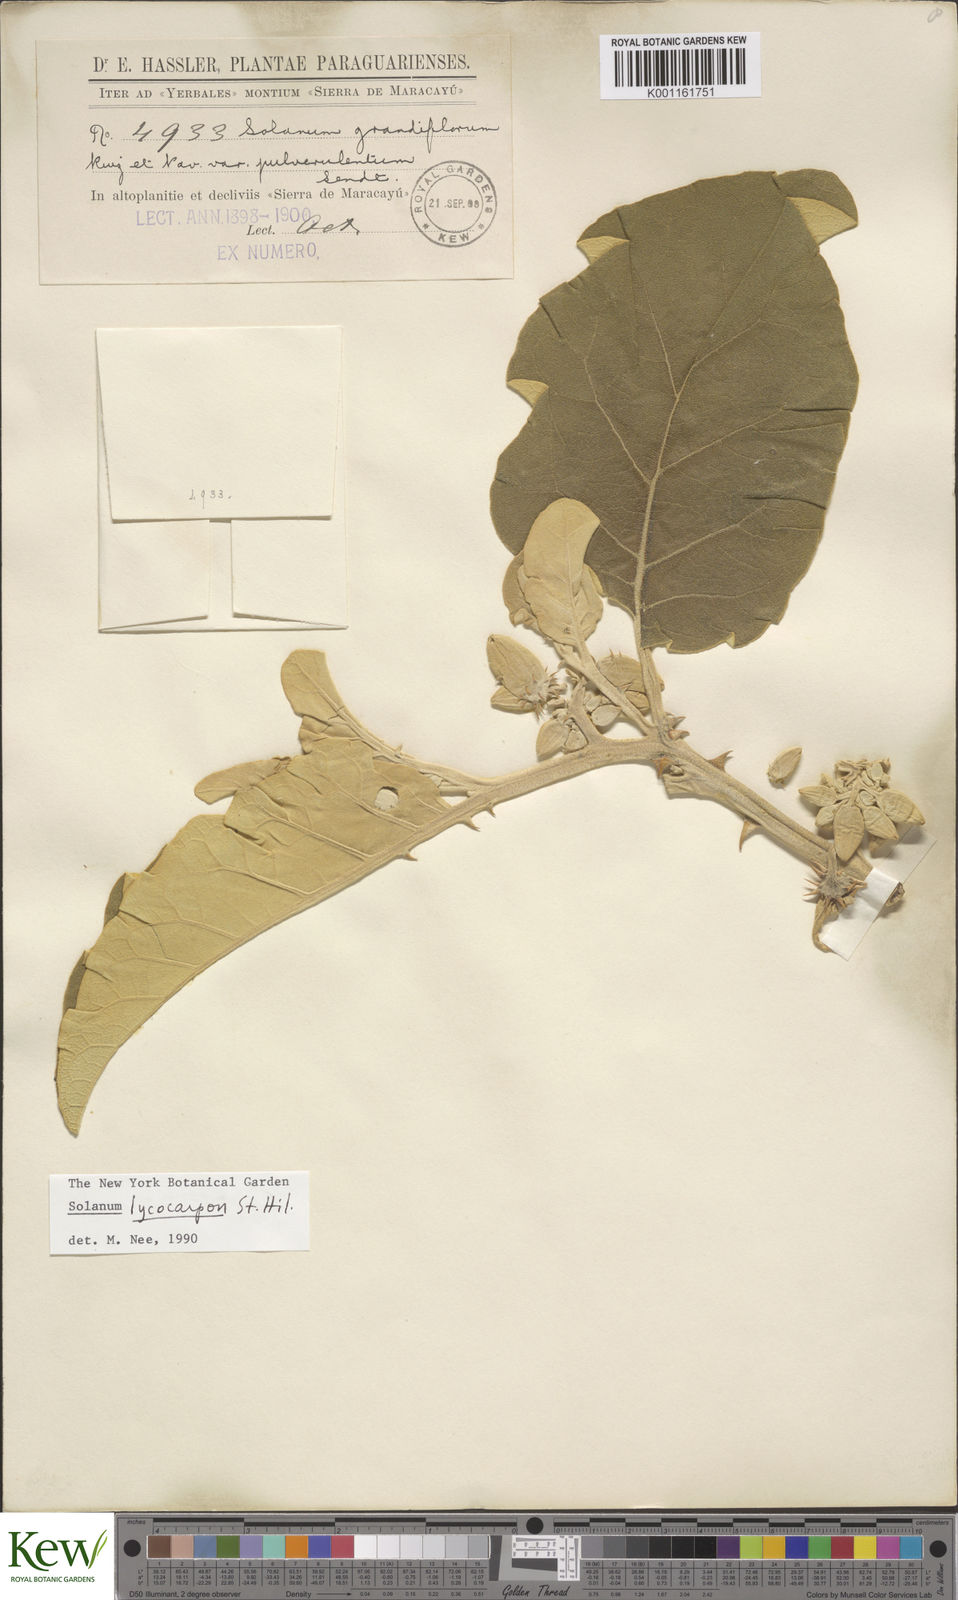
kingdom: Plantae
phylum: Tracheophyta
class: Magnoliopsida
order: Solanales
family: Solanaceae
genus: Solanum
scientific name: Solanum lycocarpum
